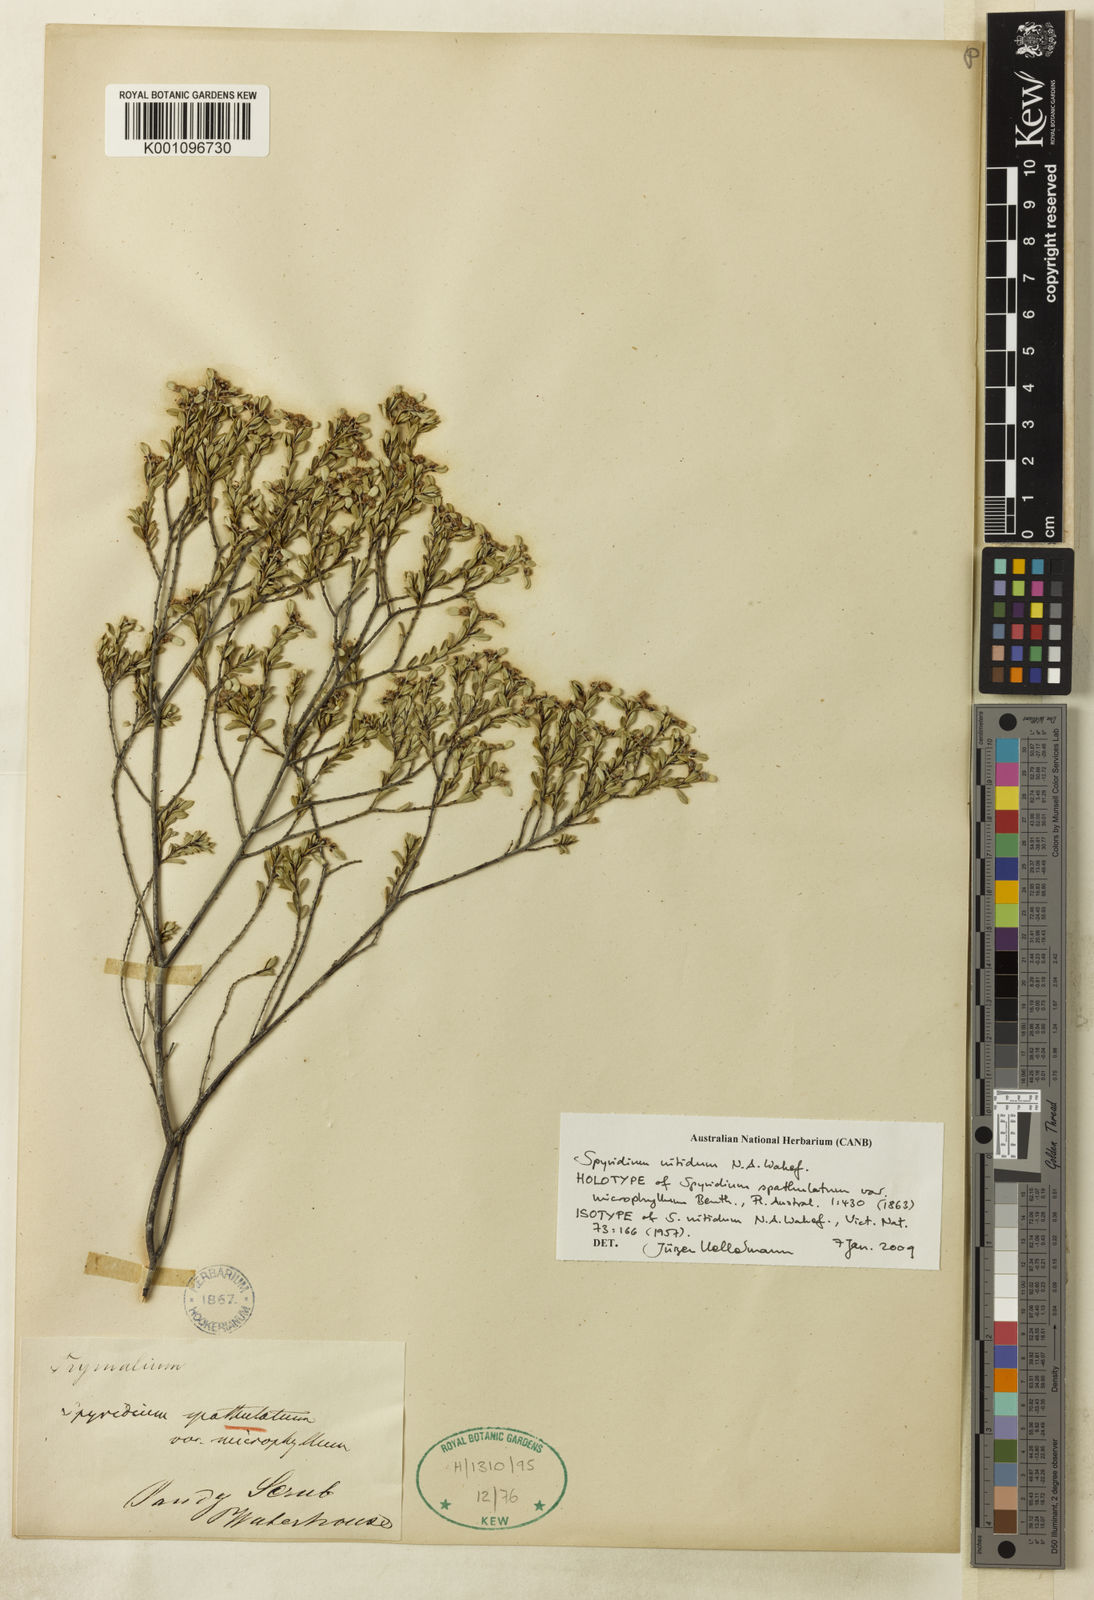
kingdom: Plantae
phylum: Tracheophyta
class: Magnoliopsida
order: Rosales
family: Rhamnaceae
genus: Spyridium
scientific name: Spyridium nitidum
